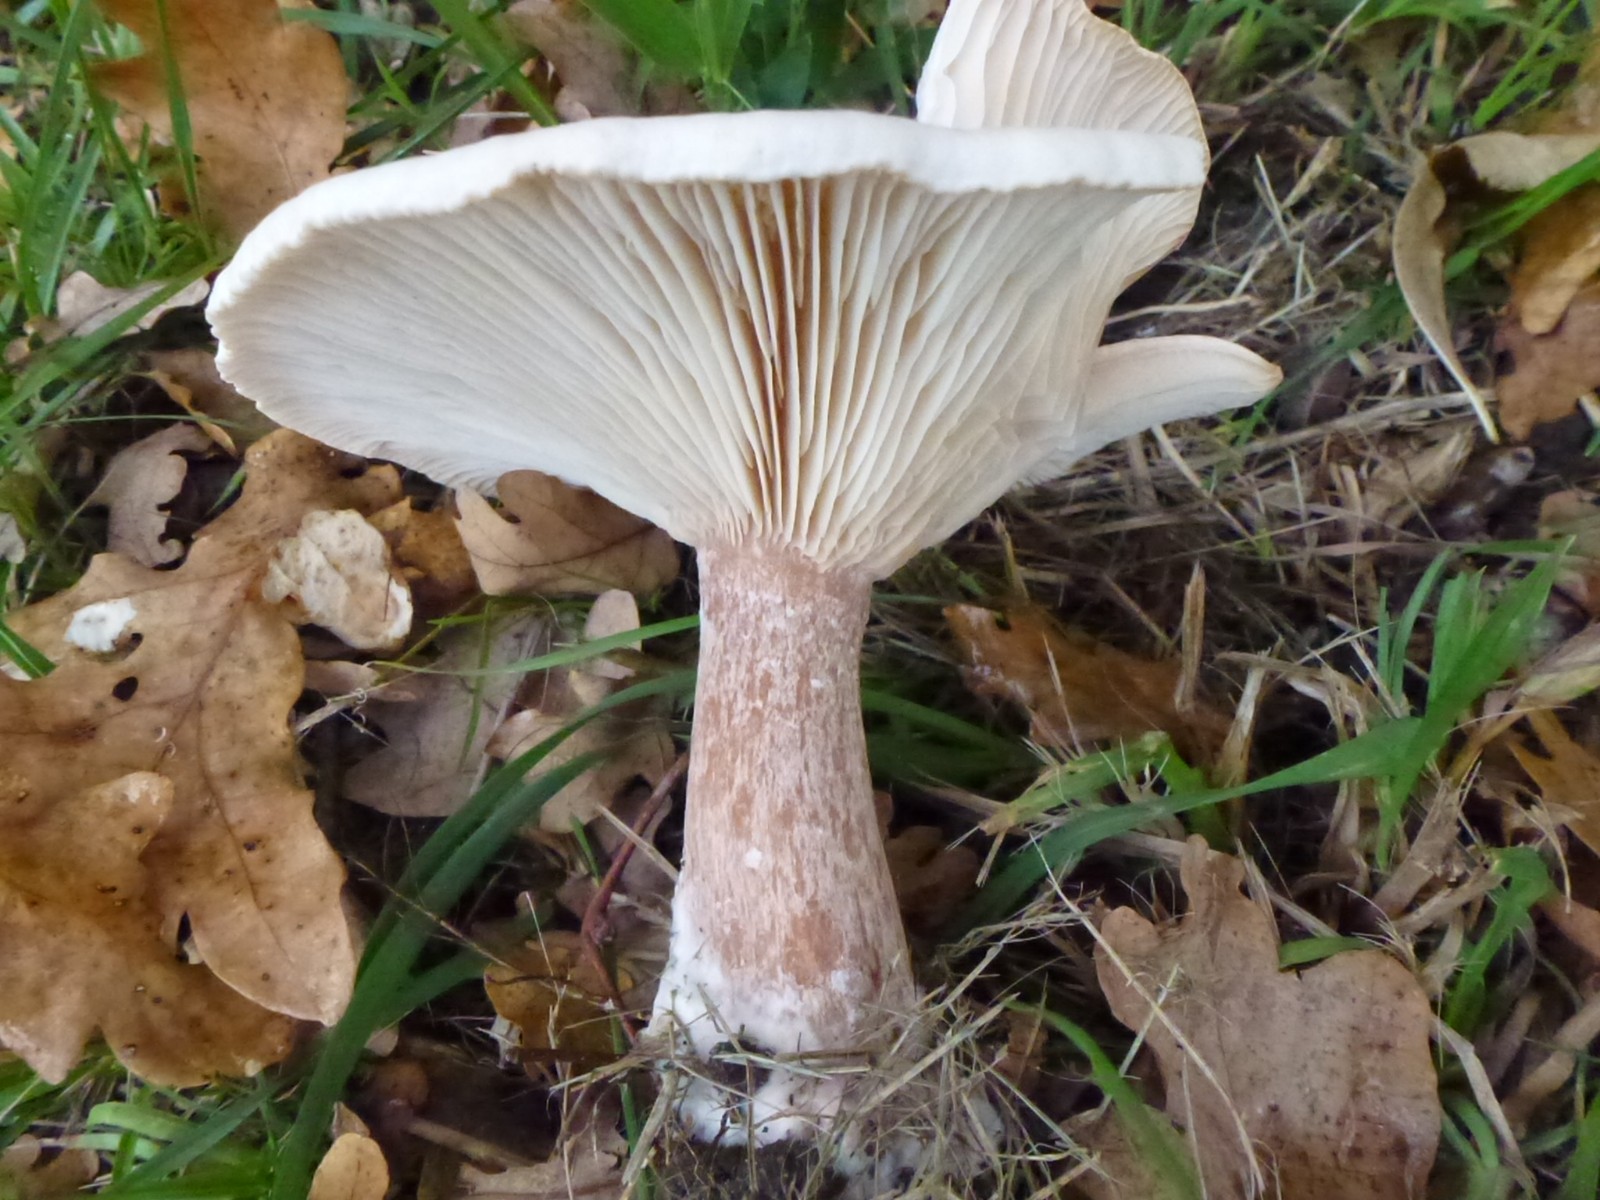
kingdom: Fungi
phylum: Basidiomycota
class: Agaricomycetes
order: Agaricales
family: Tricholomataceae
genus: Infundibulicybe
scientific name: Infundibulicybe geotropa
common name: stor tragthat
